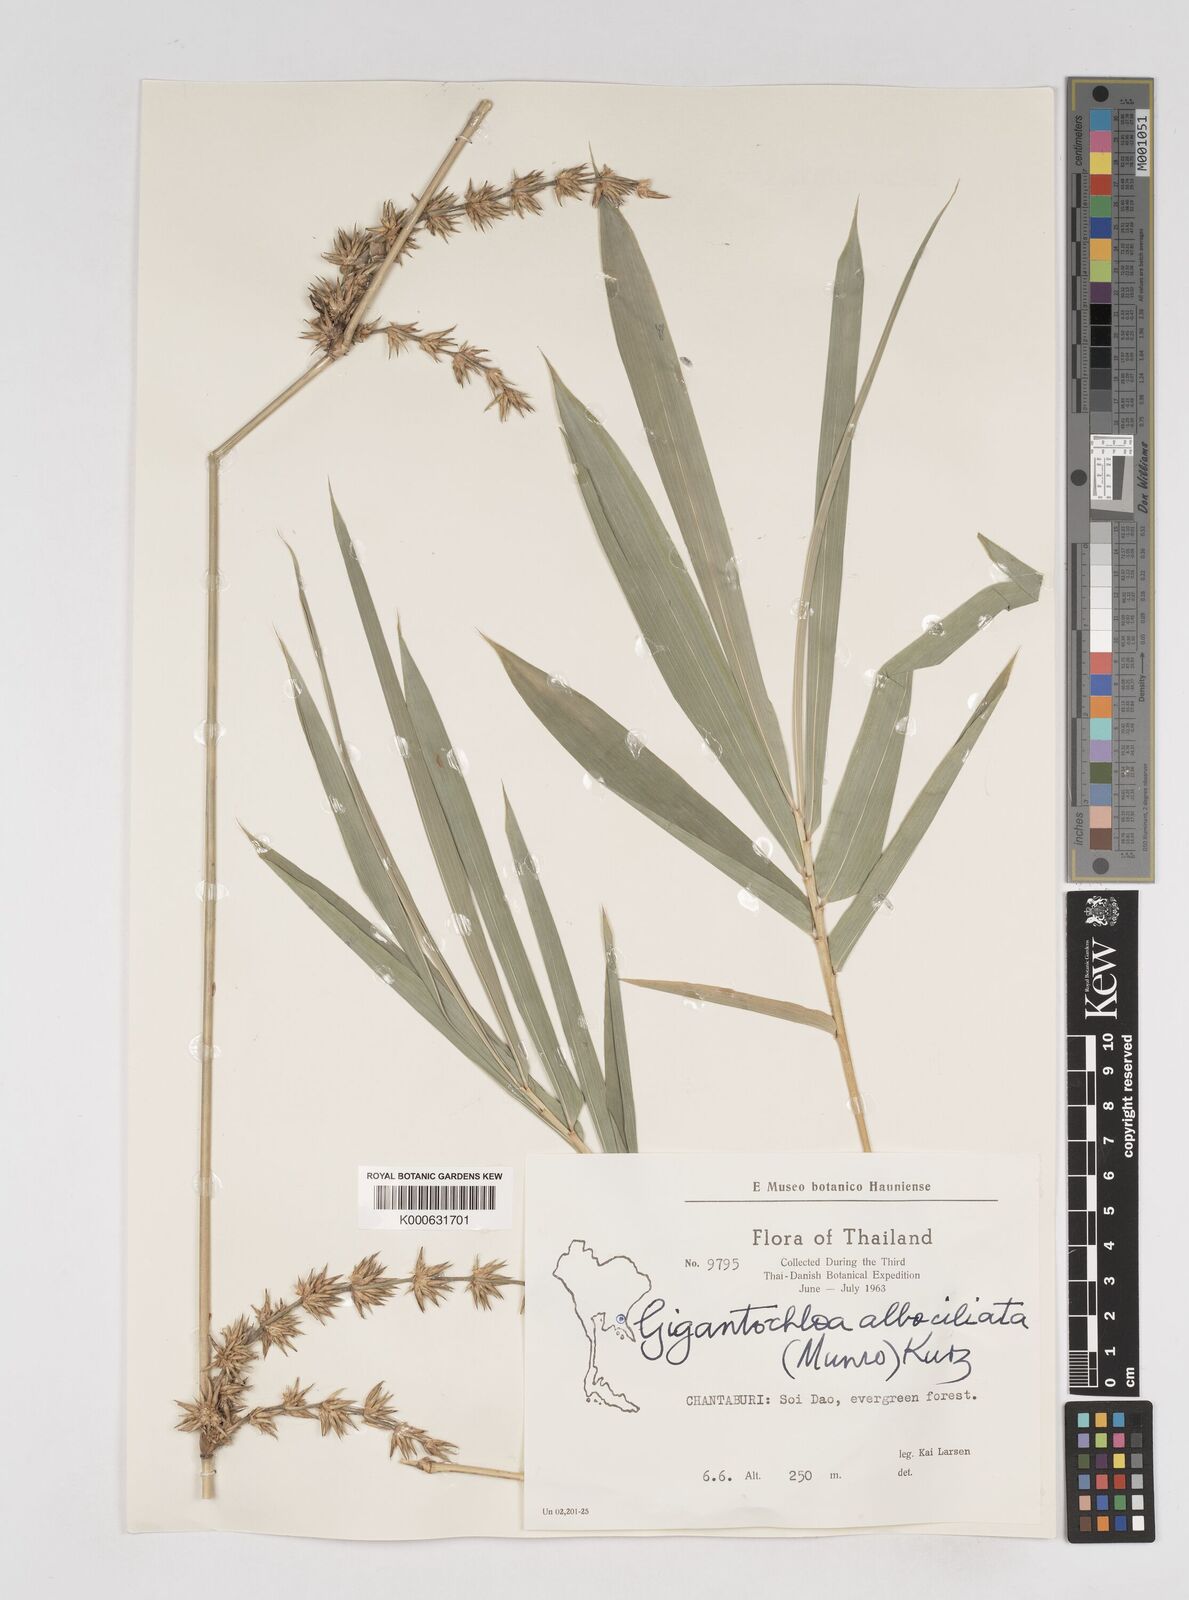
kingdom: Plantae
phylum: Tracheophyta
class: Liliopsida
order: Poales
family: Poaceae
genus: Gigantochloa
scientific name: Gigantochloa albociliata
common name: White-fringe gigantochloa
